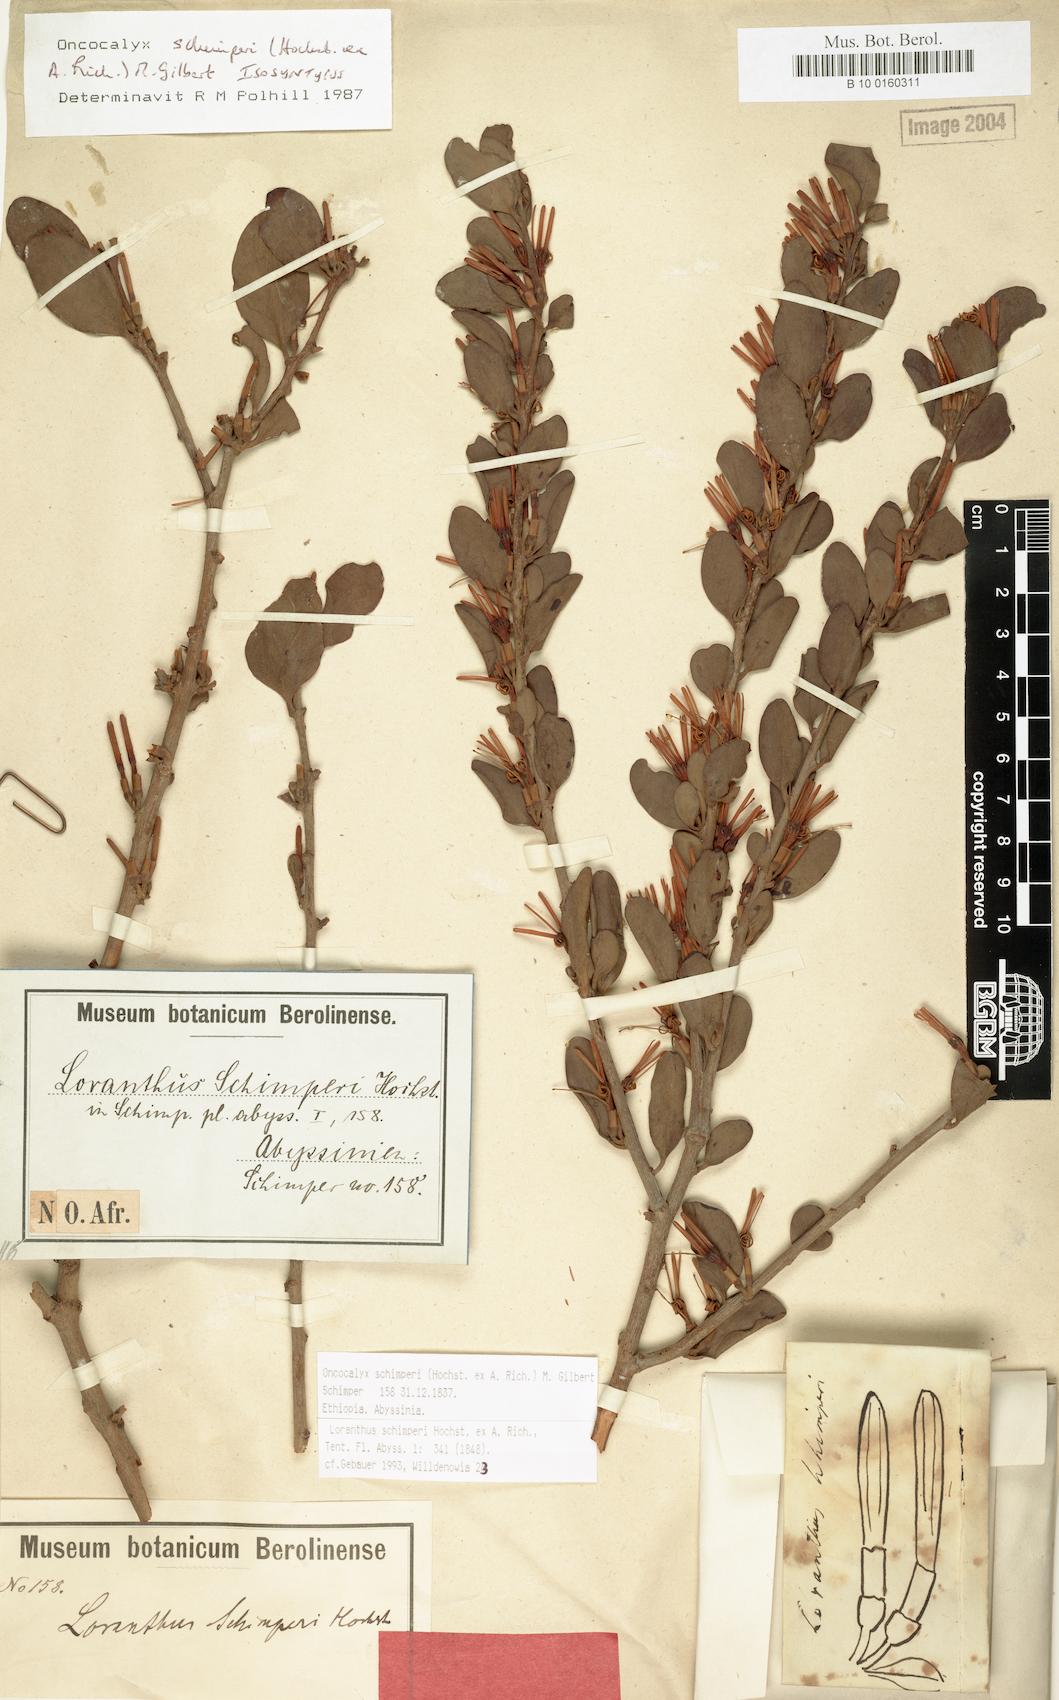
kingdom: Plantae
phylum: Tracheophyta
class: Magnoliopsida
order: Santalales
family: Loranthaceae
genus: Loranthella
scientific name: Loranthella
